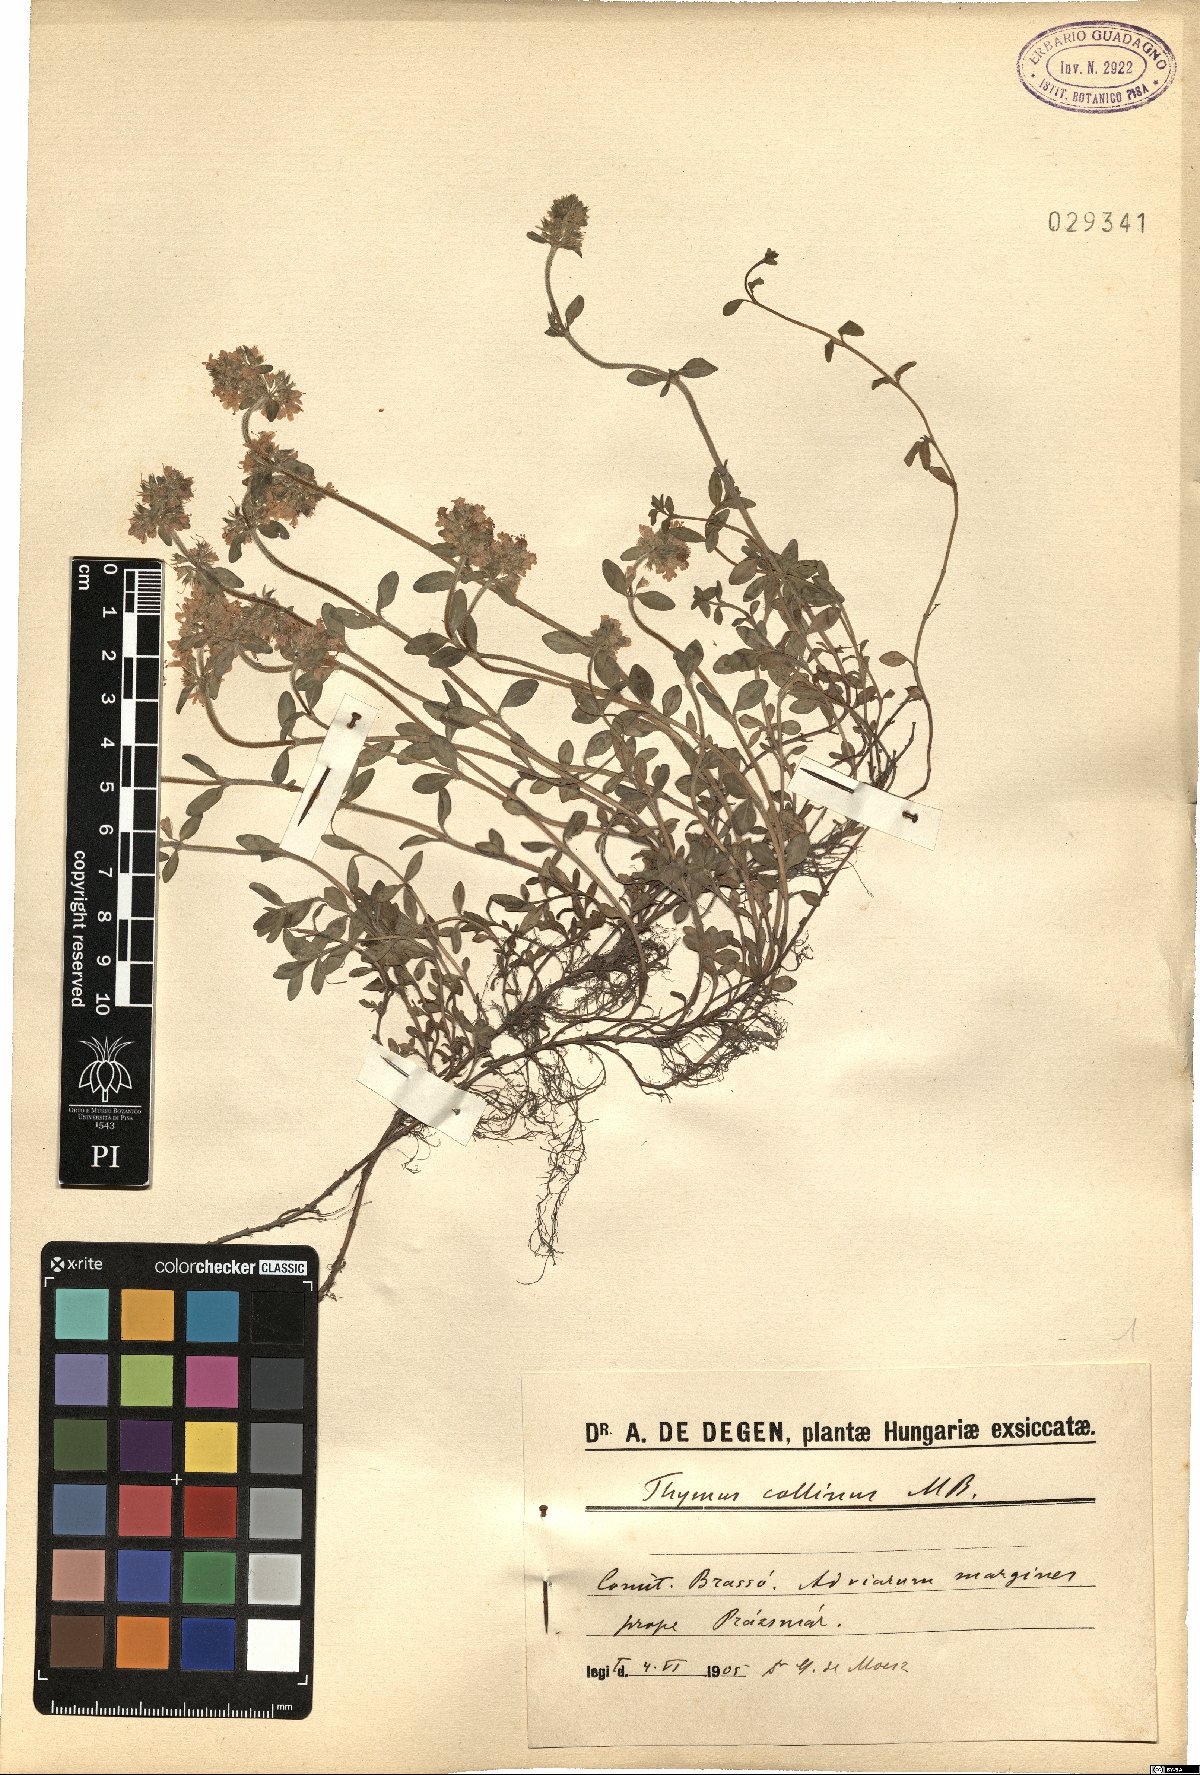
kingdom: Plantae
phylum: Tracheophyta
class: Magnoliopsida
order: Lamiales
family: Lamiaceae
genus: Thymus
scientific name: Thymus collinus
